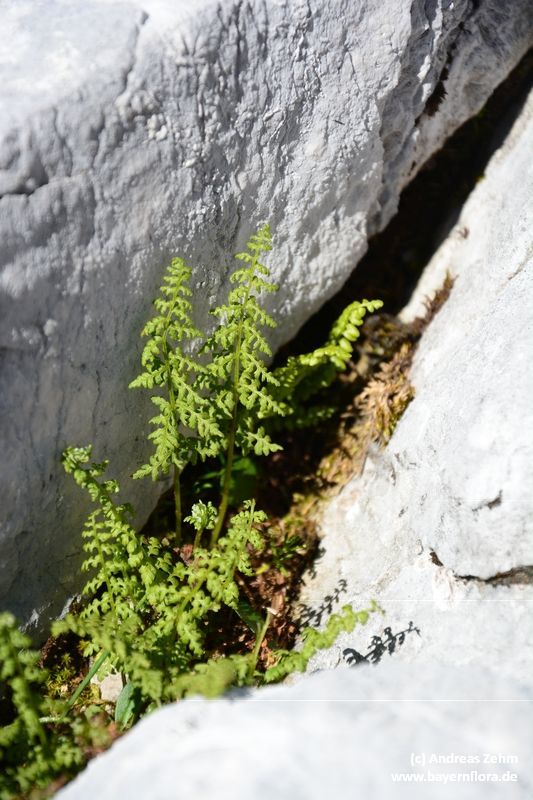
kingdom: Plantae
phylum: Tracheophyta
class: Polypodiopsida
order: Polypodiales
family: Cystopteridaceae
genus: Cystopteris
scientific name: Cystopteris alpina
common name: Alpine bladder-fern
